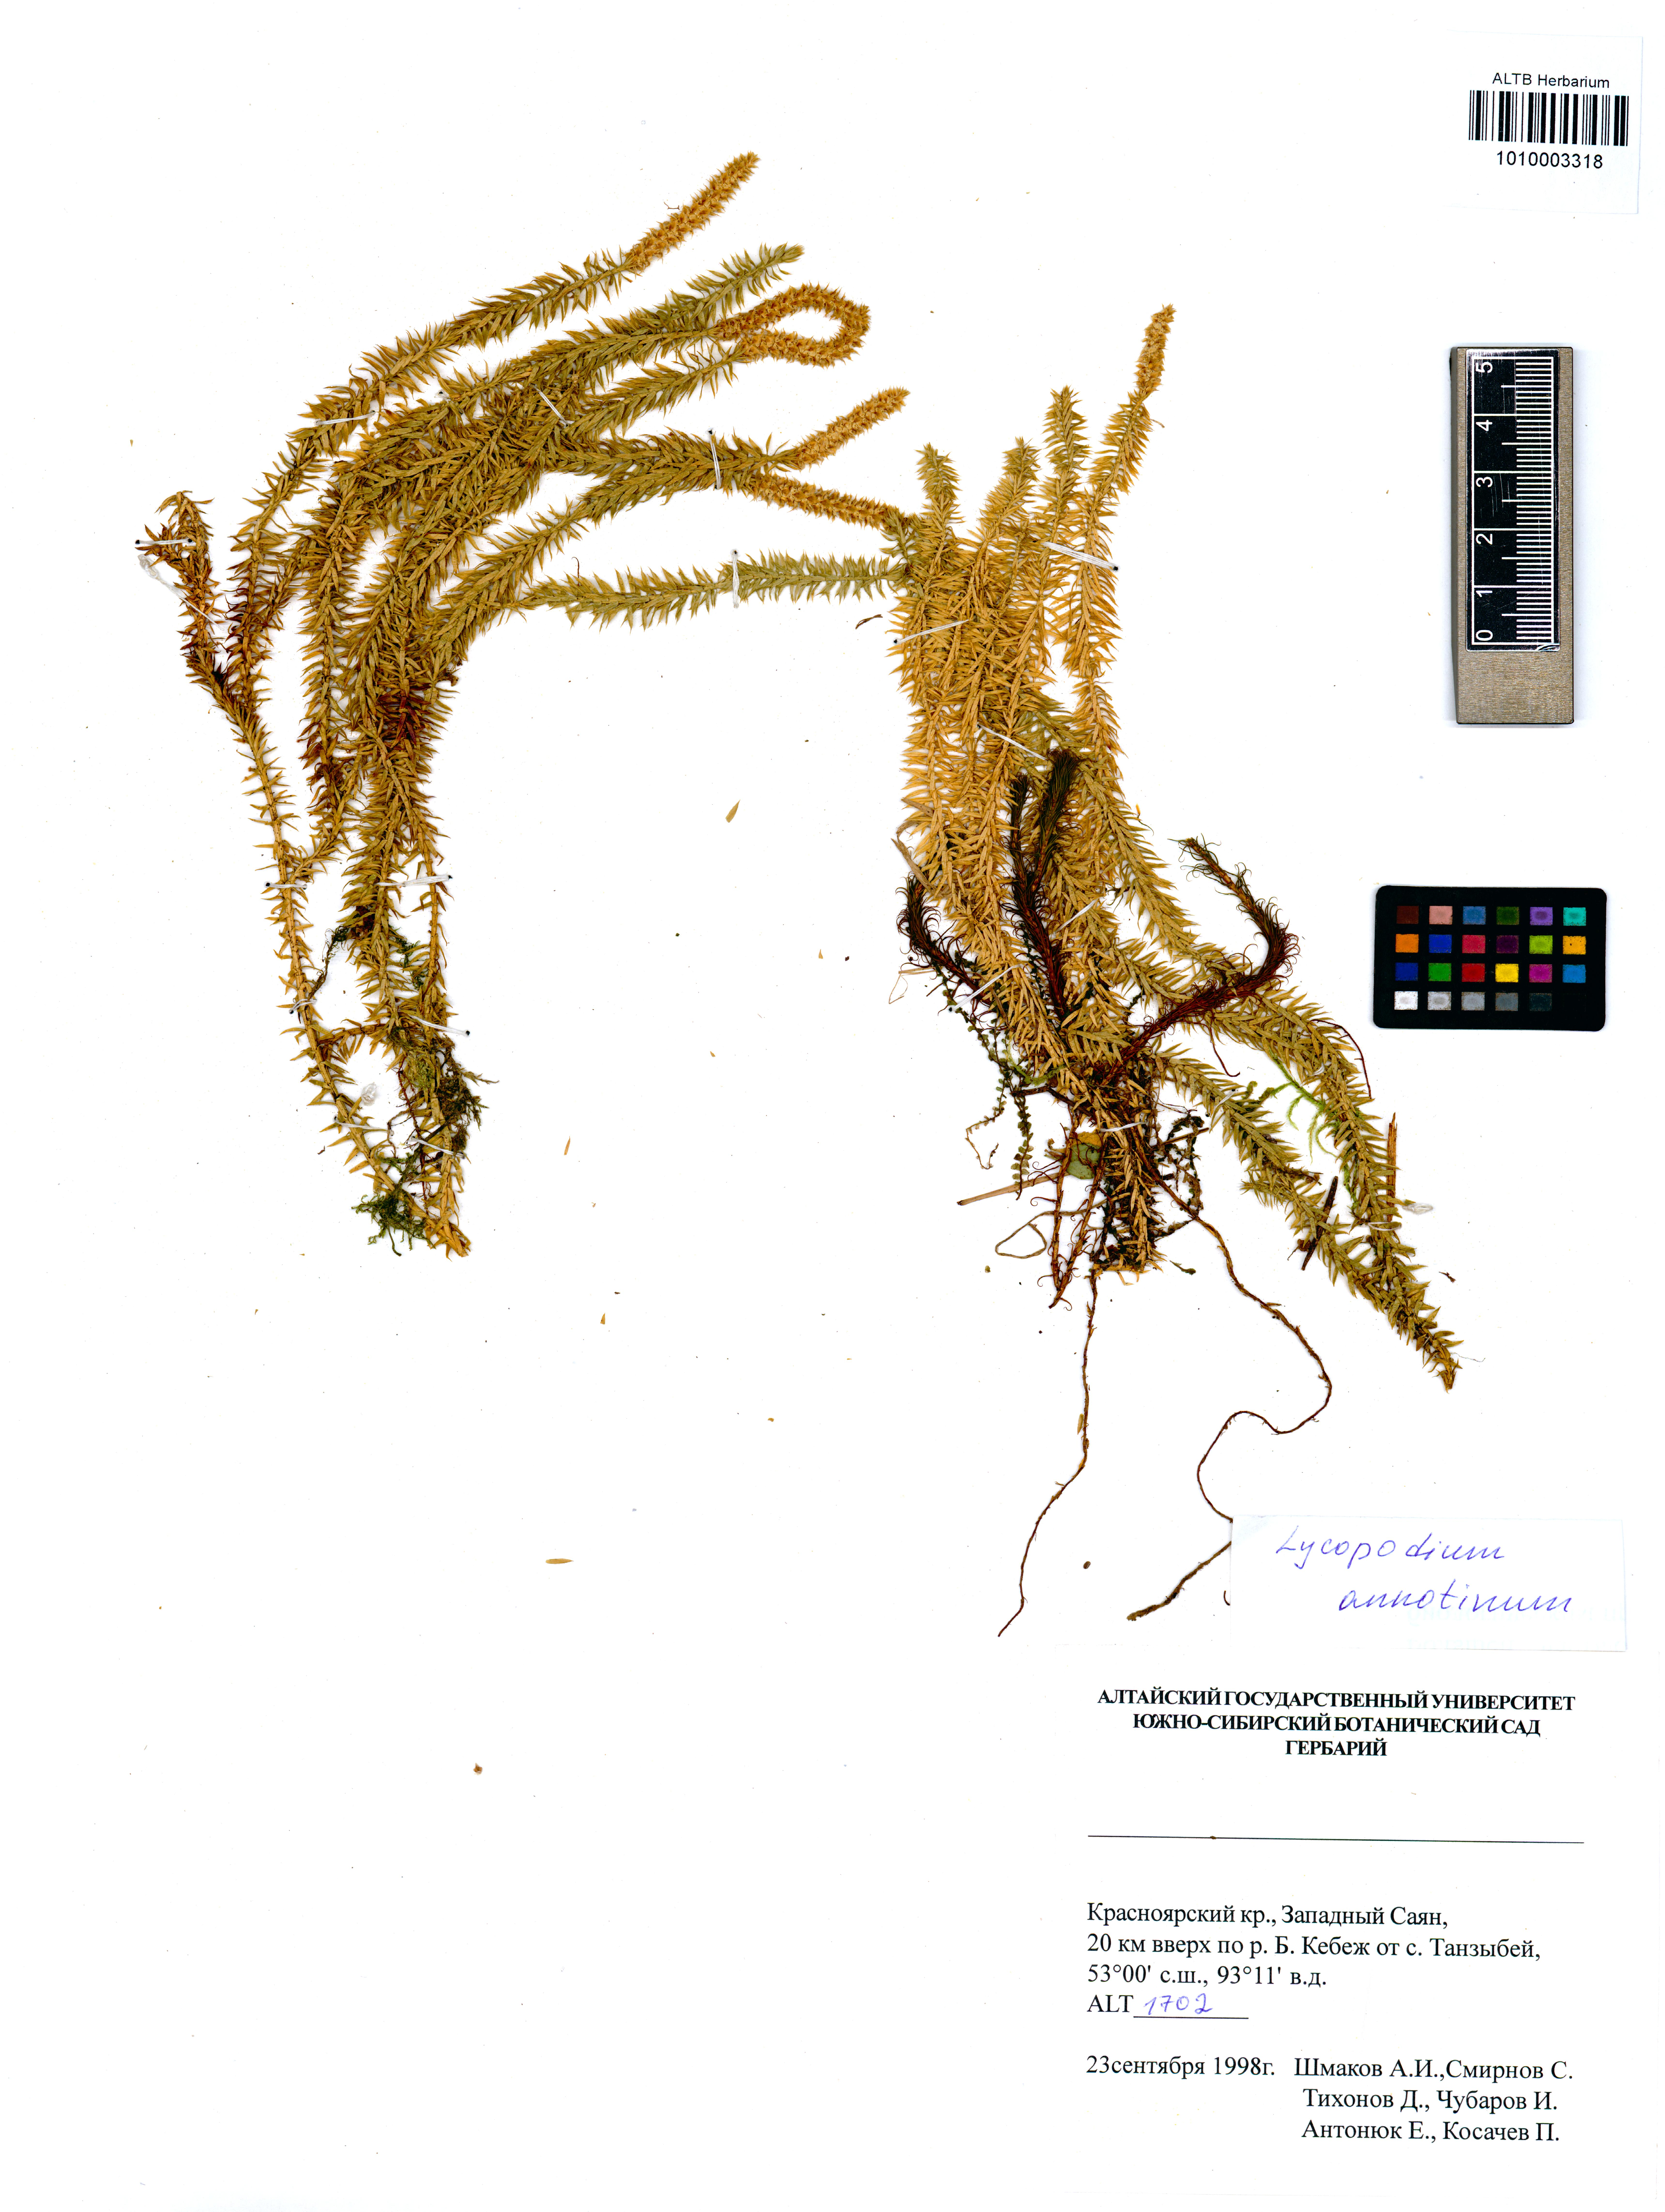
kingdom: Plantae
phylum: Tracheophyta
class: Lycopodiopsida
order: Lycopodiales
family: Lycopodiaceae
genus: Spinulum
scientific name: Spinulum annotinum
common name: Interrupted club-moss
